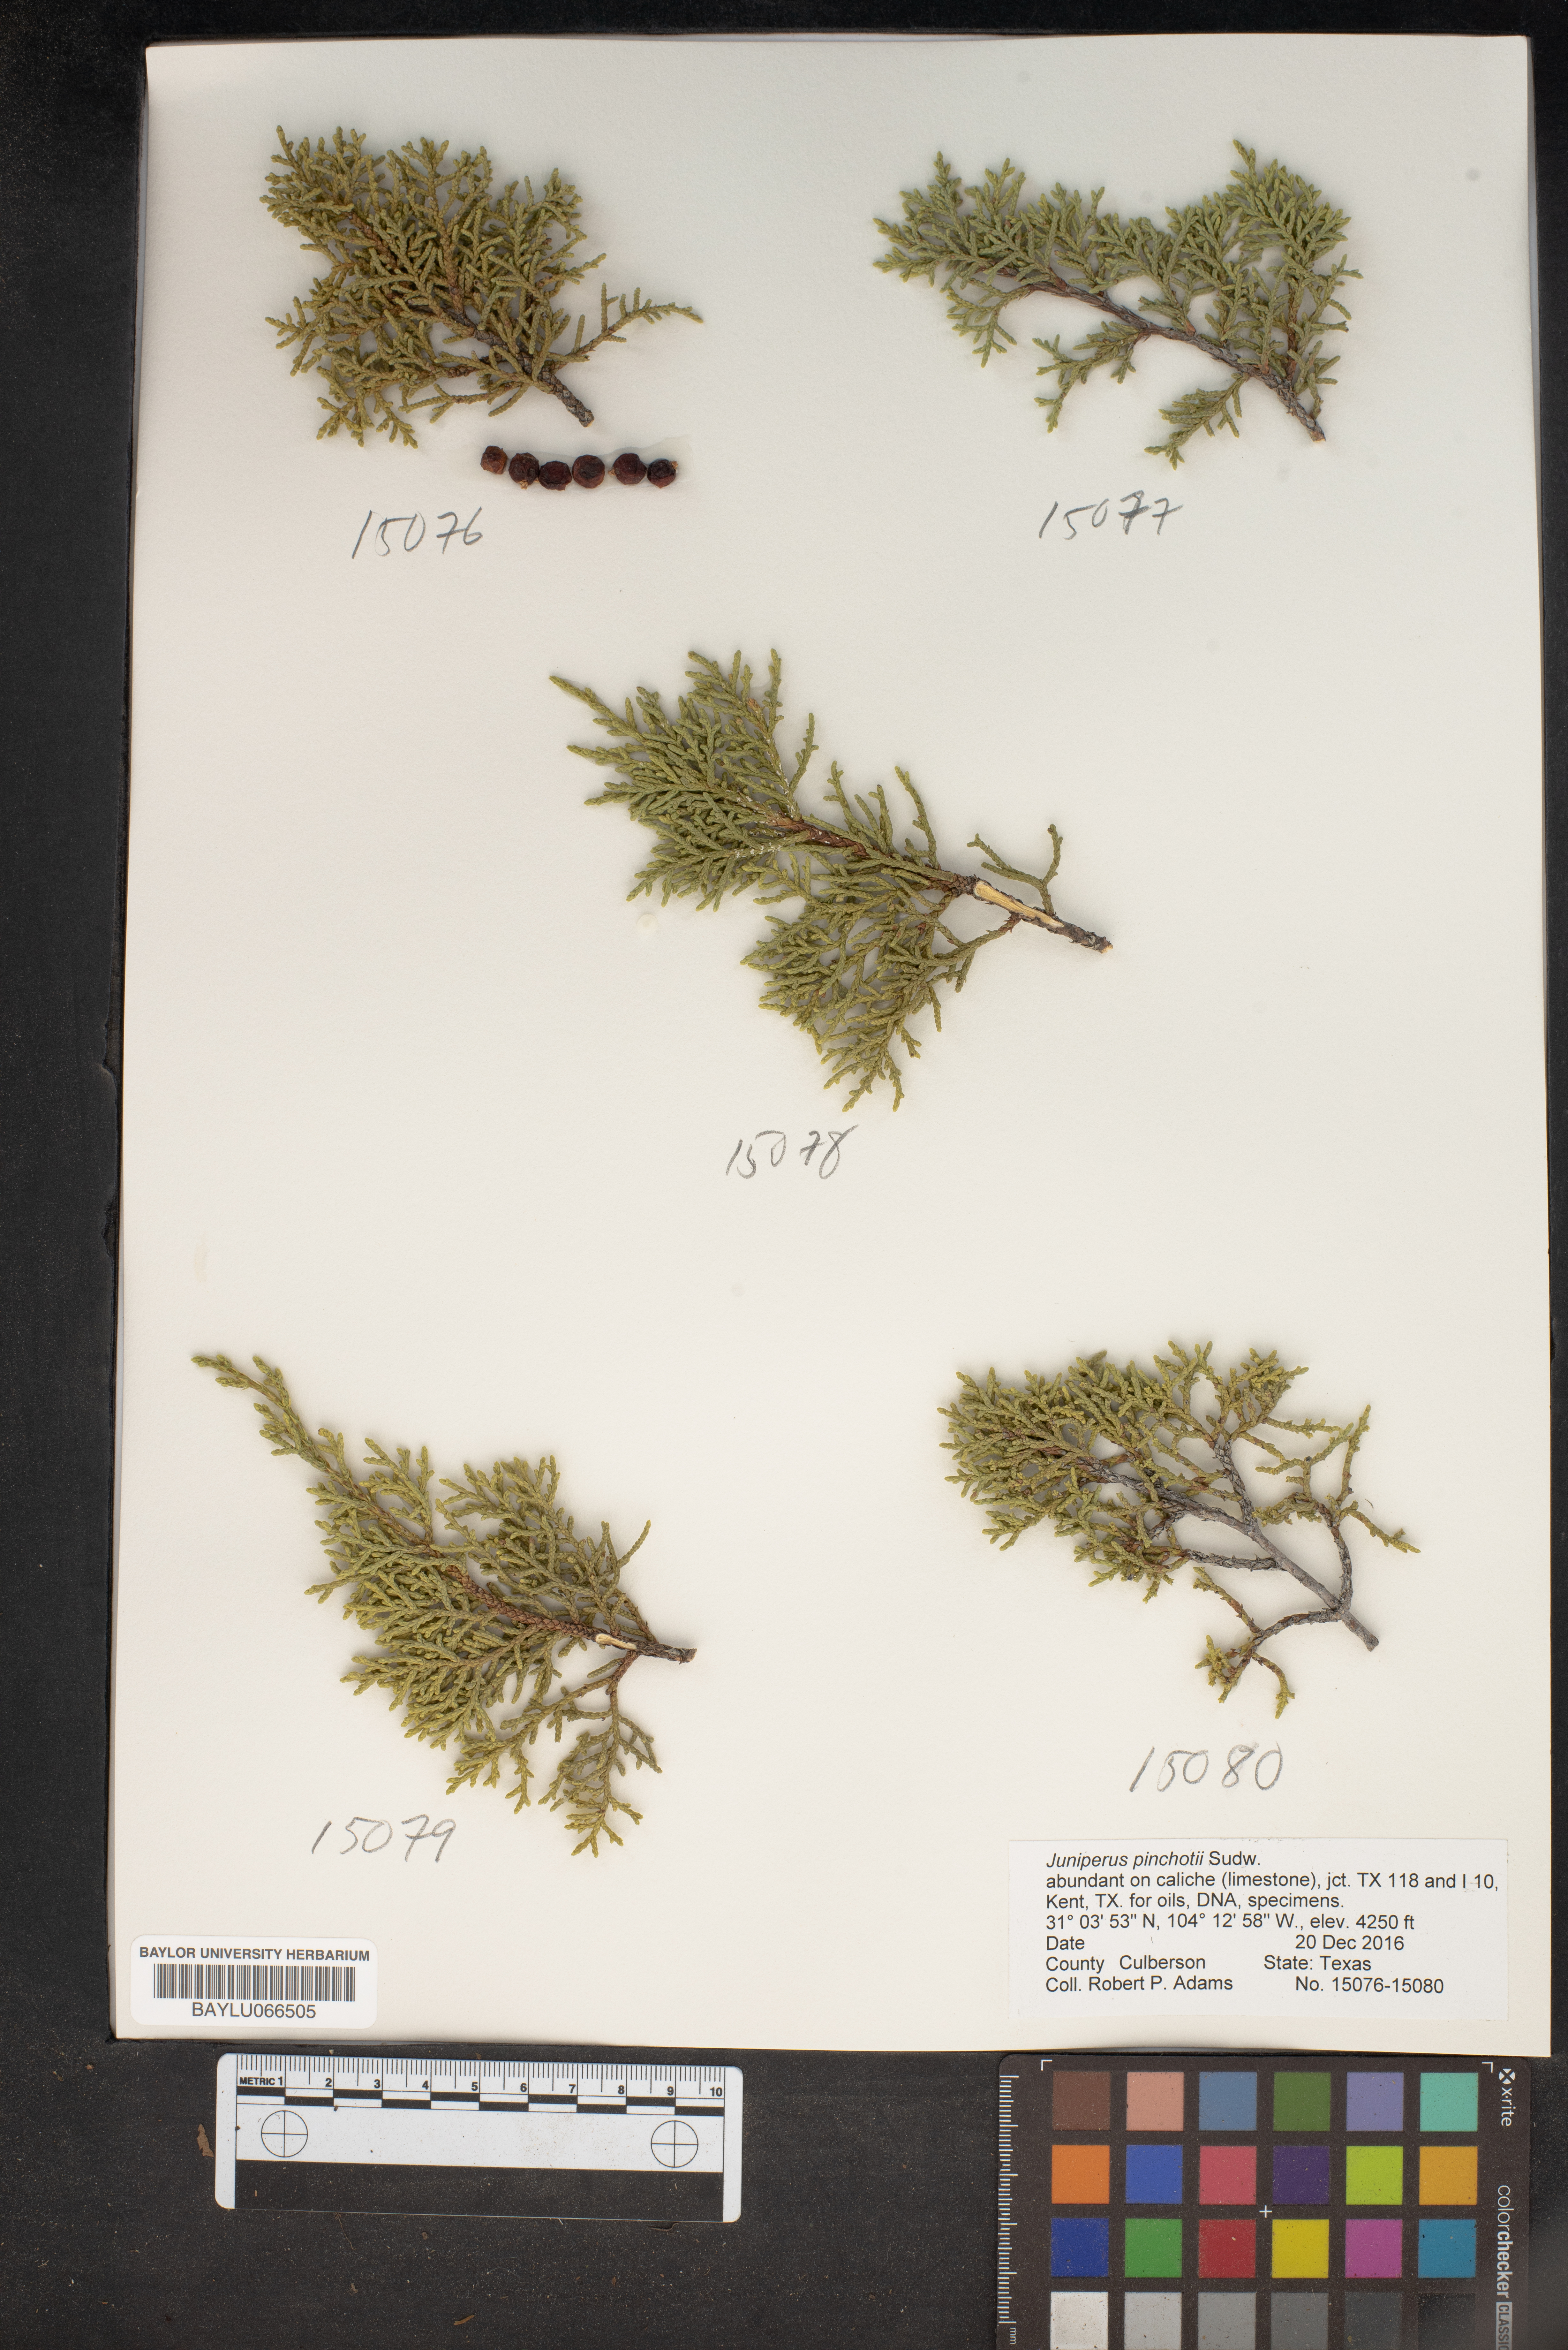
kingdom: Plantae
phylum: Tracheophyta
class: Pinopsida
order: Pinales
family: Cupressaceae
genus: Juniperus
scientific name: Juniperus pinchotii
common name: Pinchot juniper
